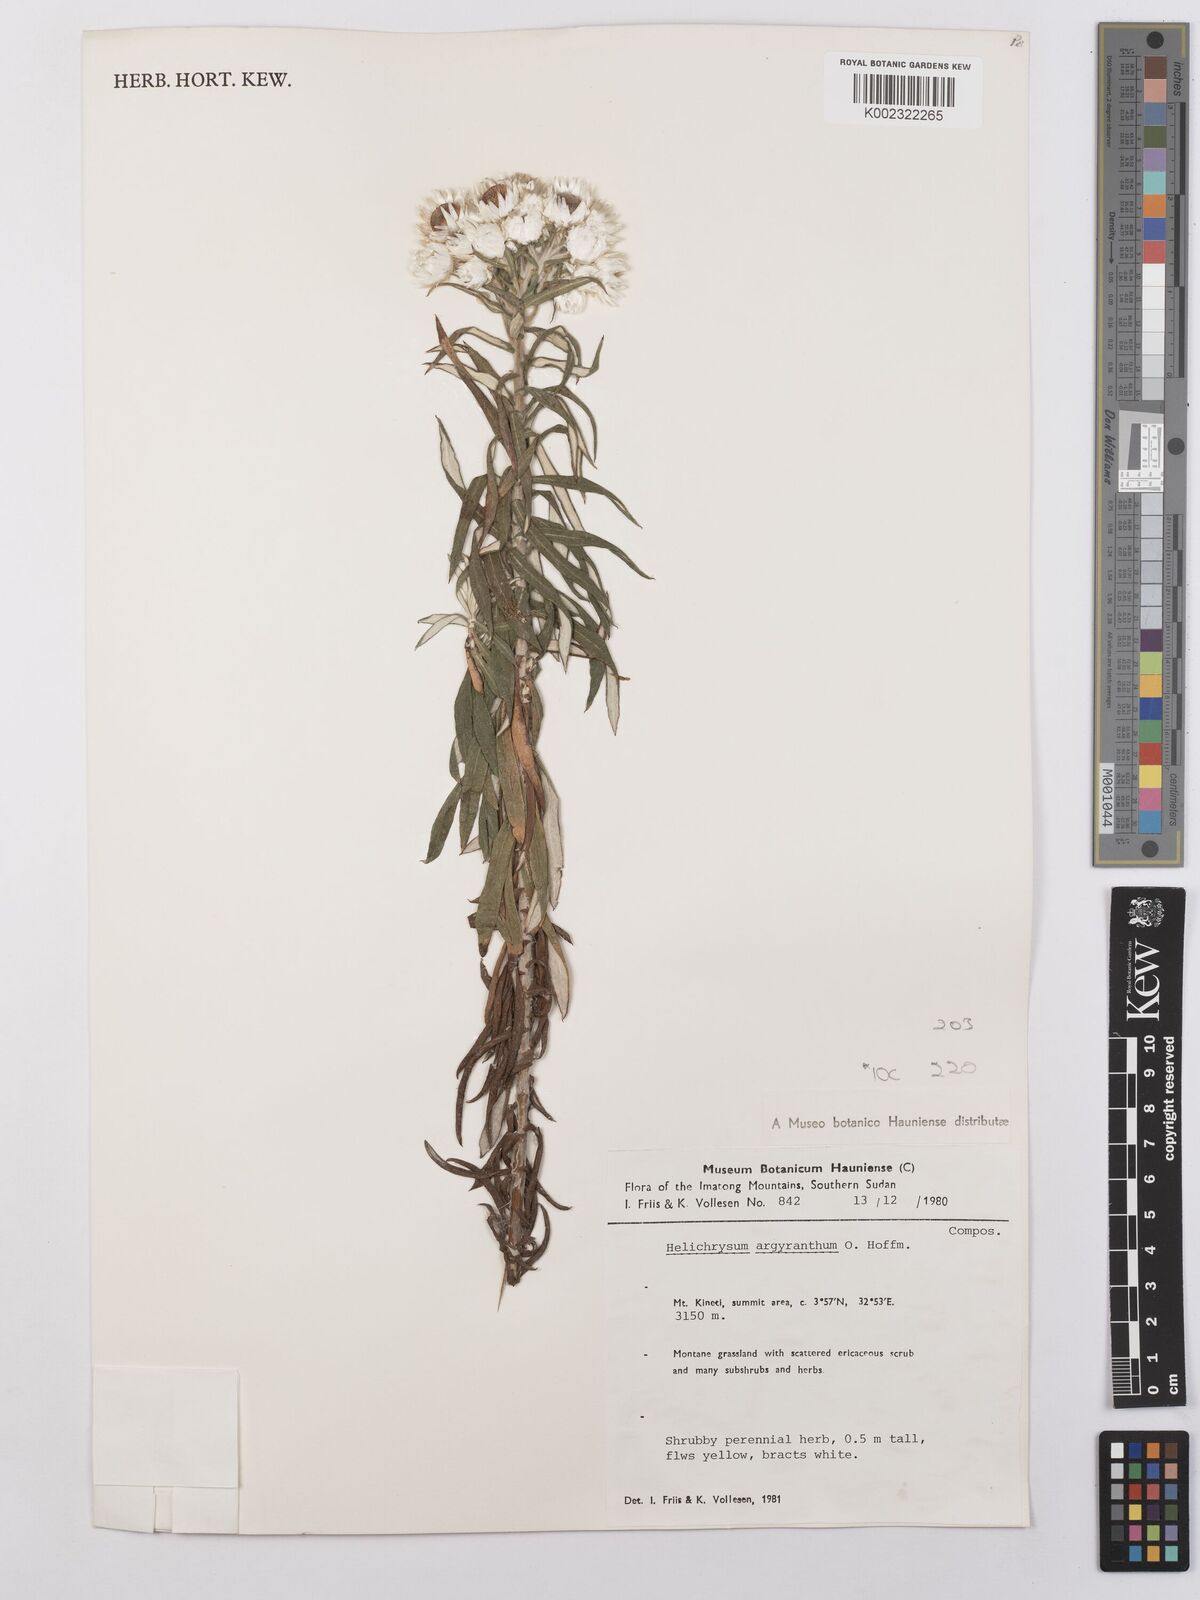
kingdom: Plantae
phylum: Tracheophyta
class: Magnoliopsida
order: Asterales
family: Asteraceae
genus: Helichrysum
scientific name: Helichrysum argyranthum
